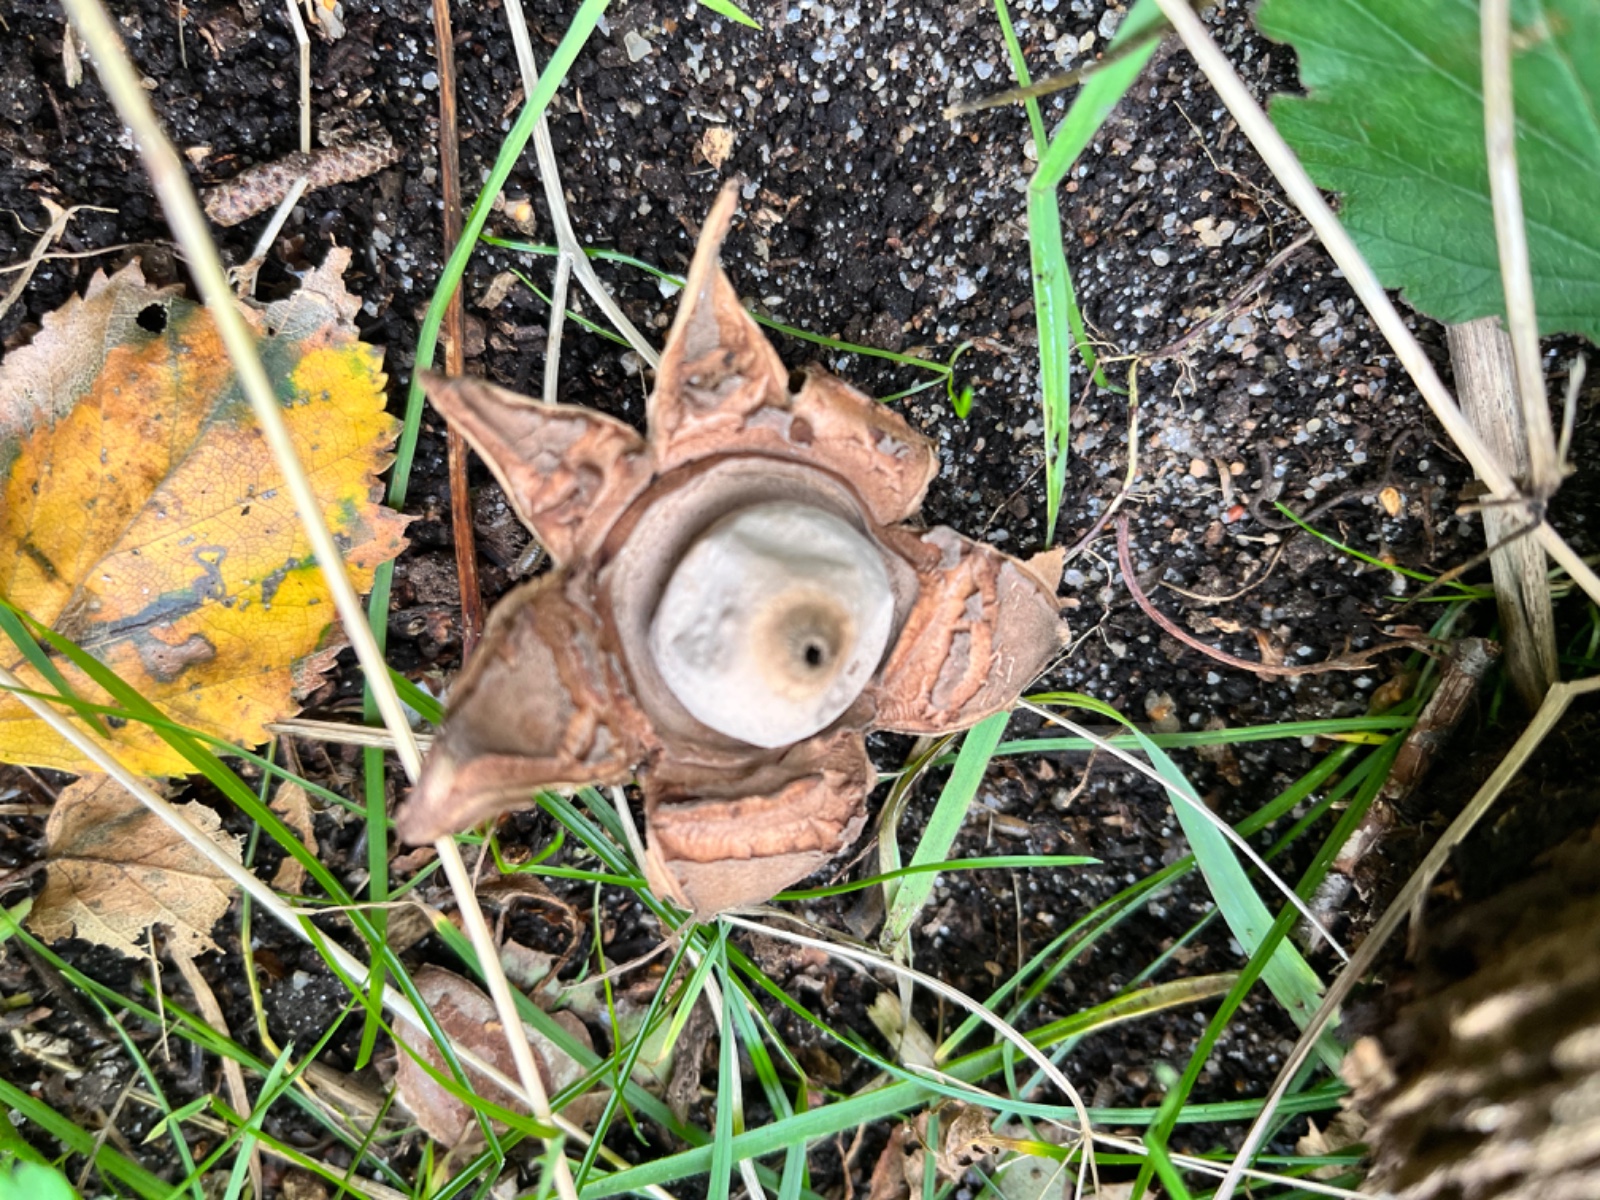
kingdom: Fungi
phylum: Basidiomycota
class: Agaricomycetes
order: Geastrales
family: Geastraceae
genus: Geastrum
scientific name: Geastrum michelianum
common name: kødet stjernebold
